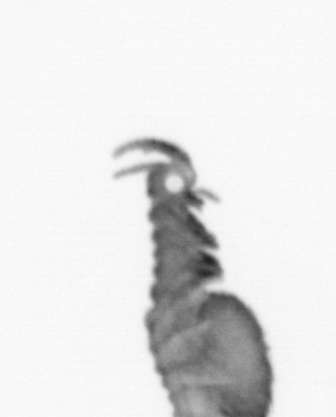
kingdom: Animalia
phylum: Annelida
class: Polychaeta
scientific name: Polychaeta
